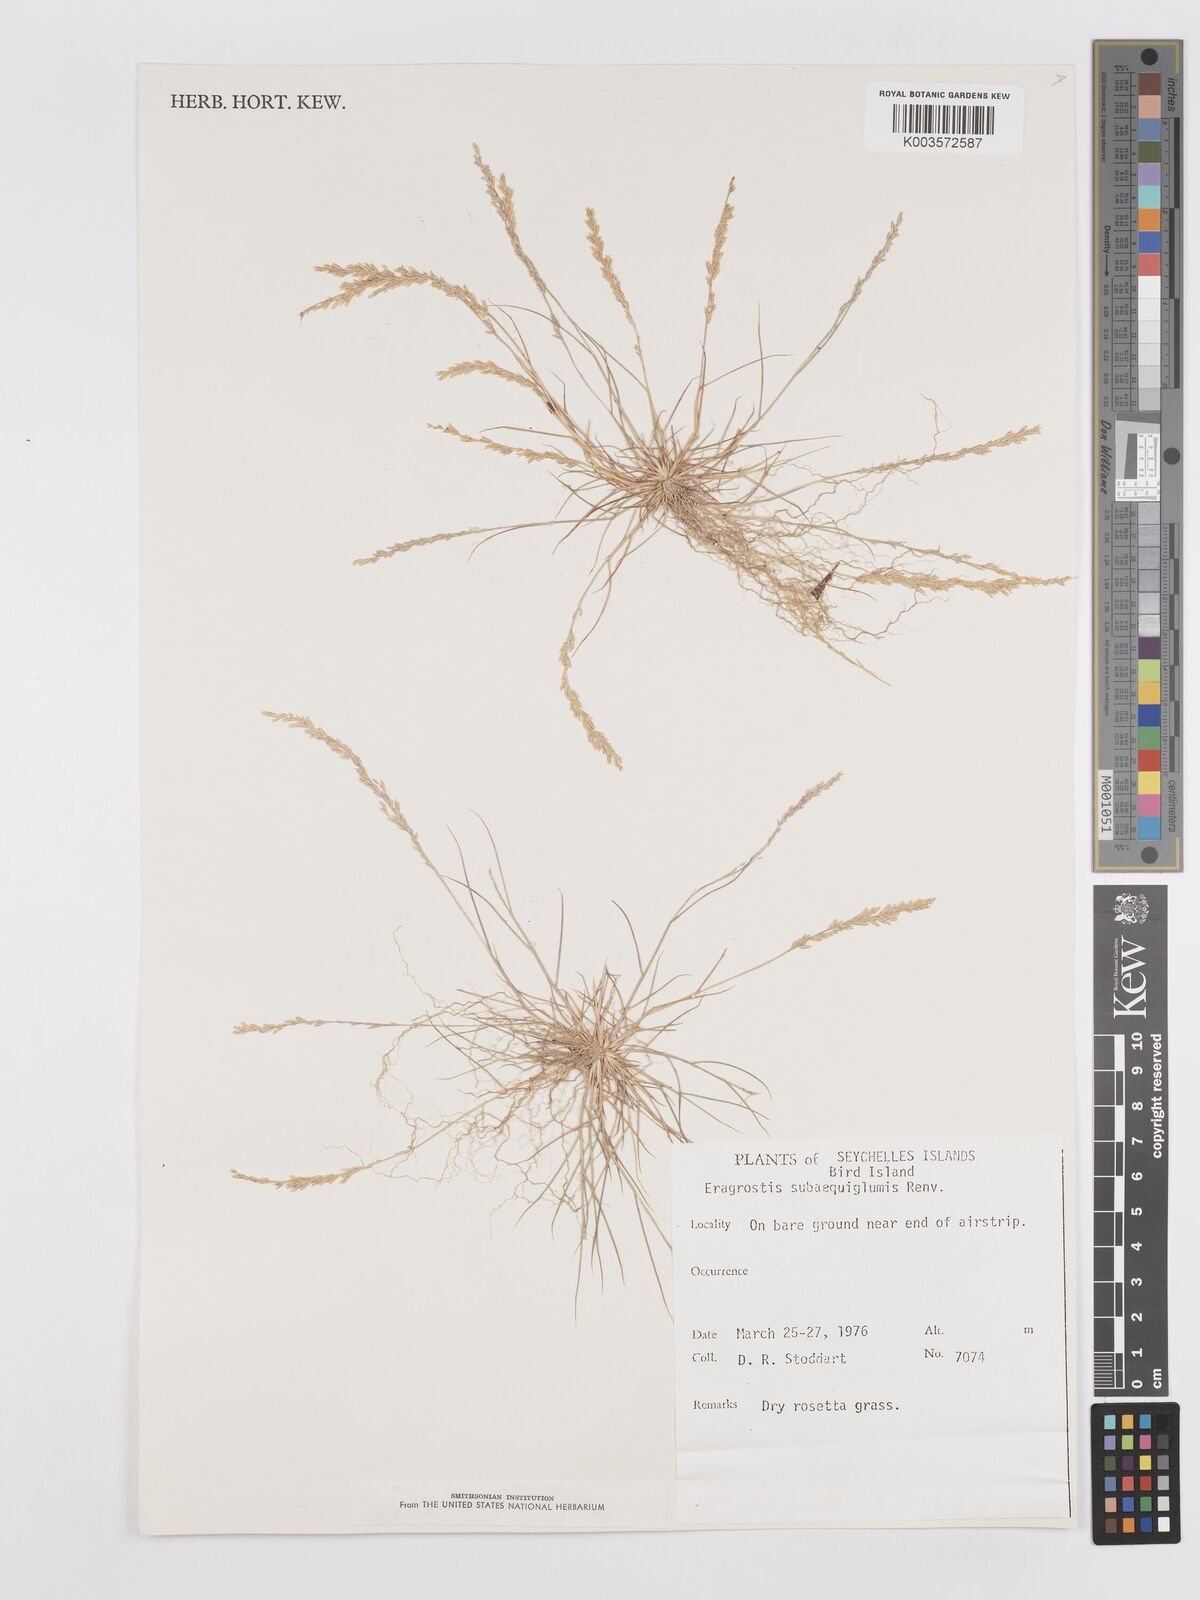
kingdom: Plantae
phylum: Tracheophyta
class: Liliopsida
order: Poales
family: Poaceae
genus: Eragrostis
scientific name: Eragrostis subaequiglumis
